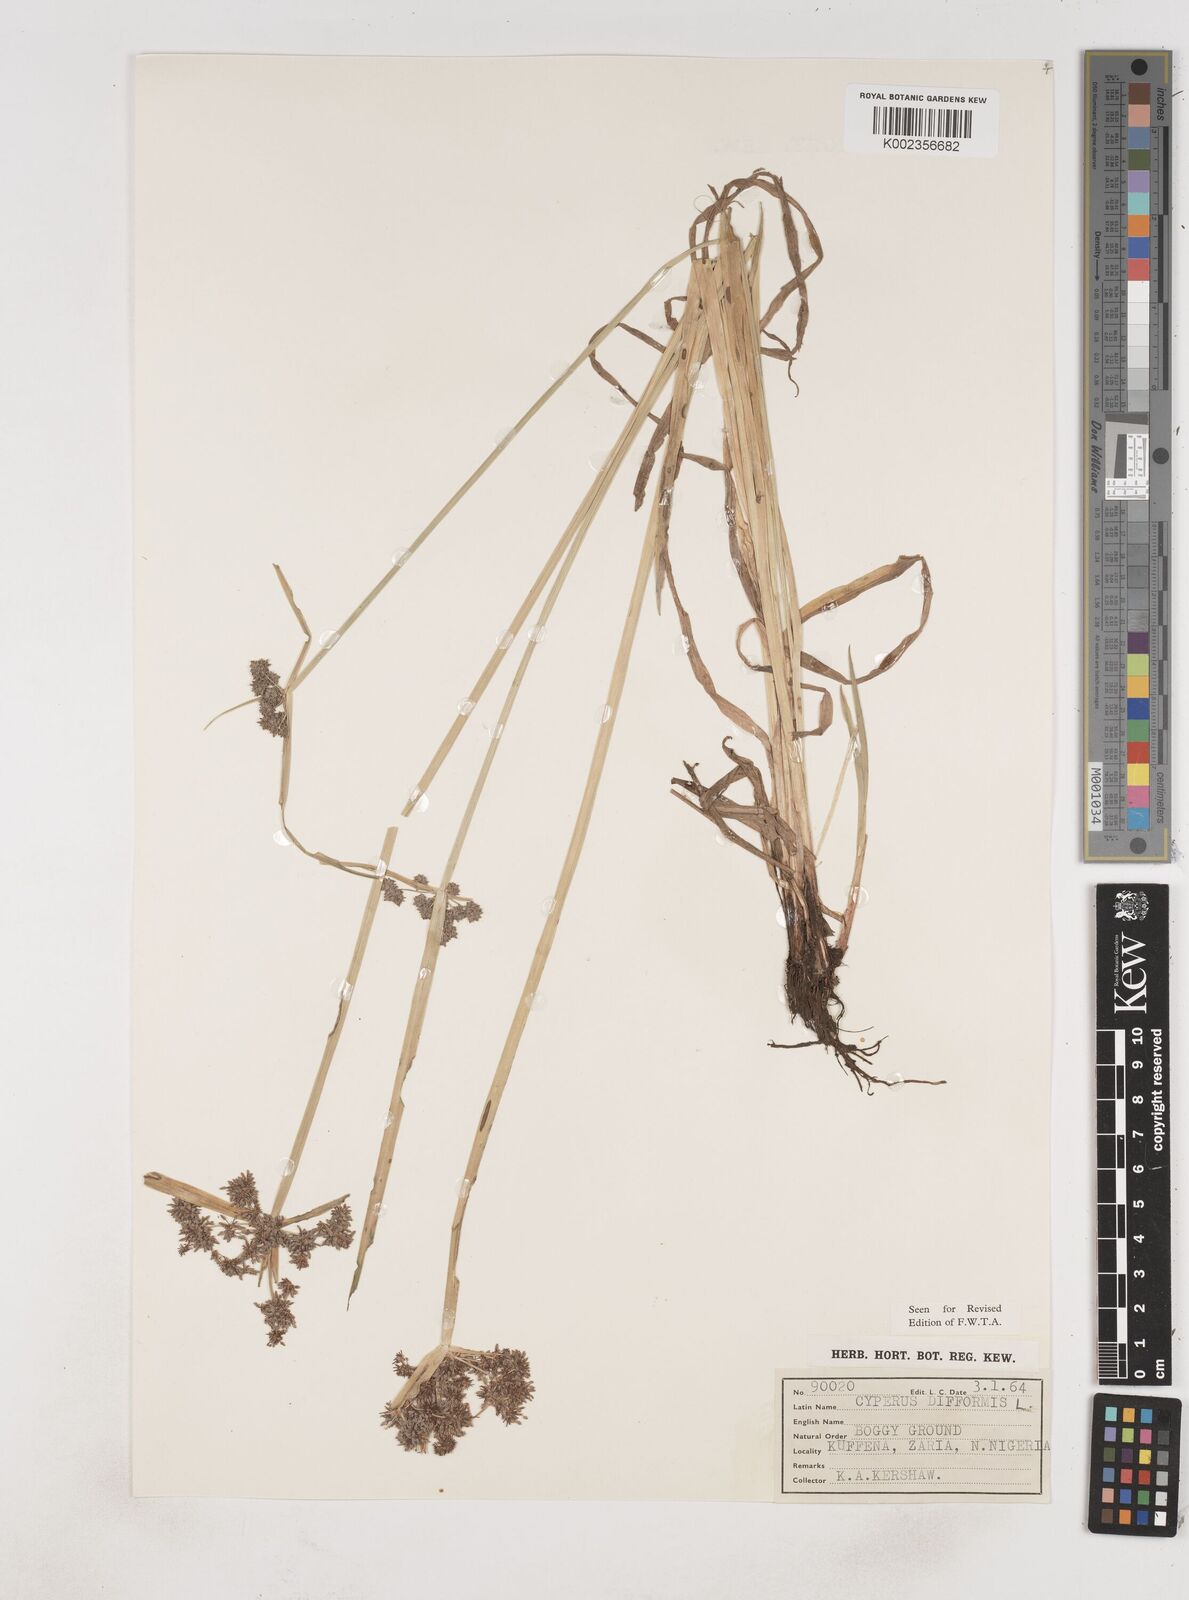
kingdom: Plantae
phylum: Tracheophyta
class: Liliopsida
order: Poales
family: Cyperaceae
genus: Cyperus
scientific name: Cyperus difformis
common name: Variable flatsedge
